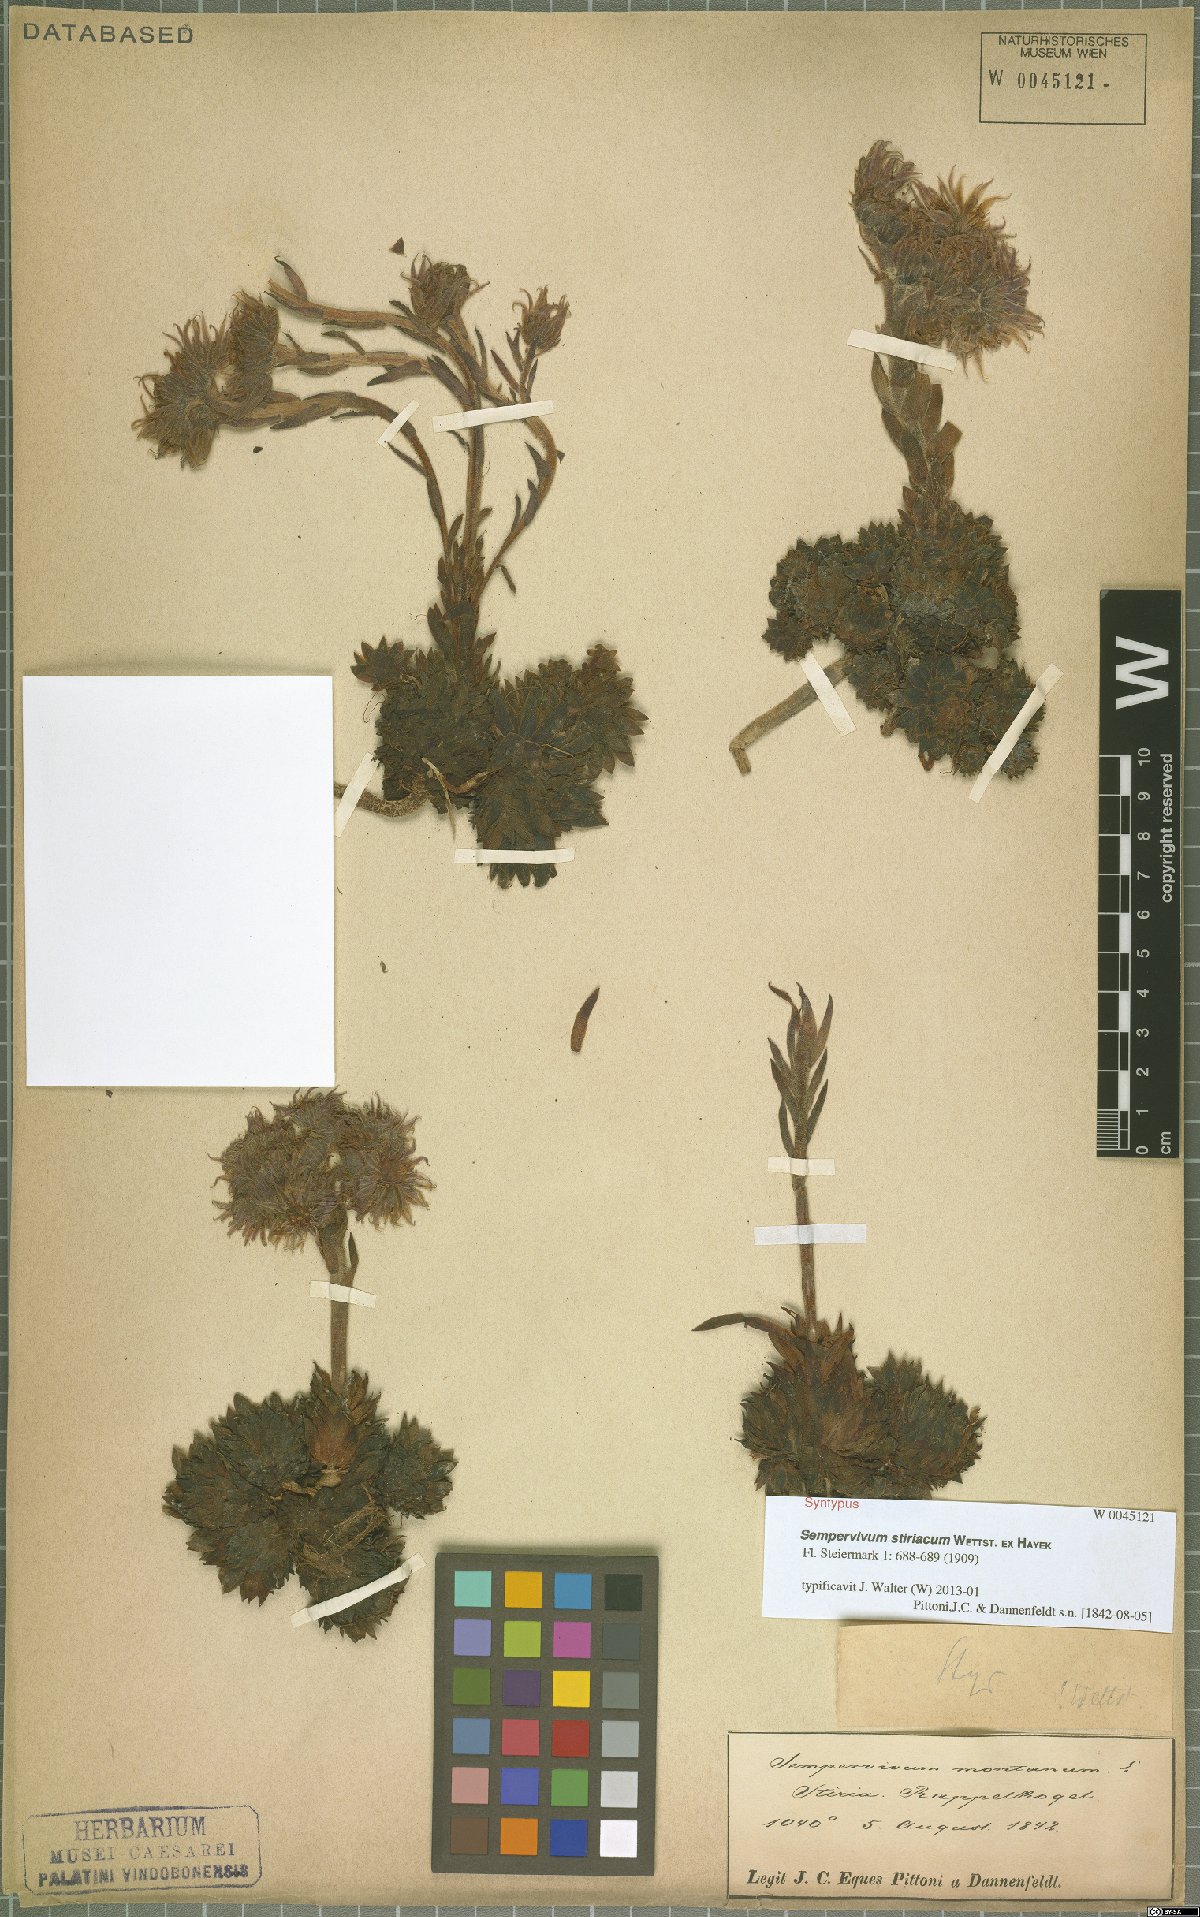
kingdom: Plantae
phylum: Tracheophyta
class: Magnoliopsida
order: Saxifragales
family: Crassulaceae
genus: Sempervivum
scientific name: Sempervivum montanum
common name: Mountain house-leek
